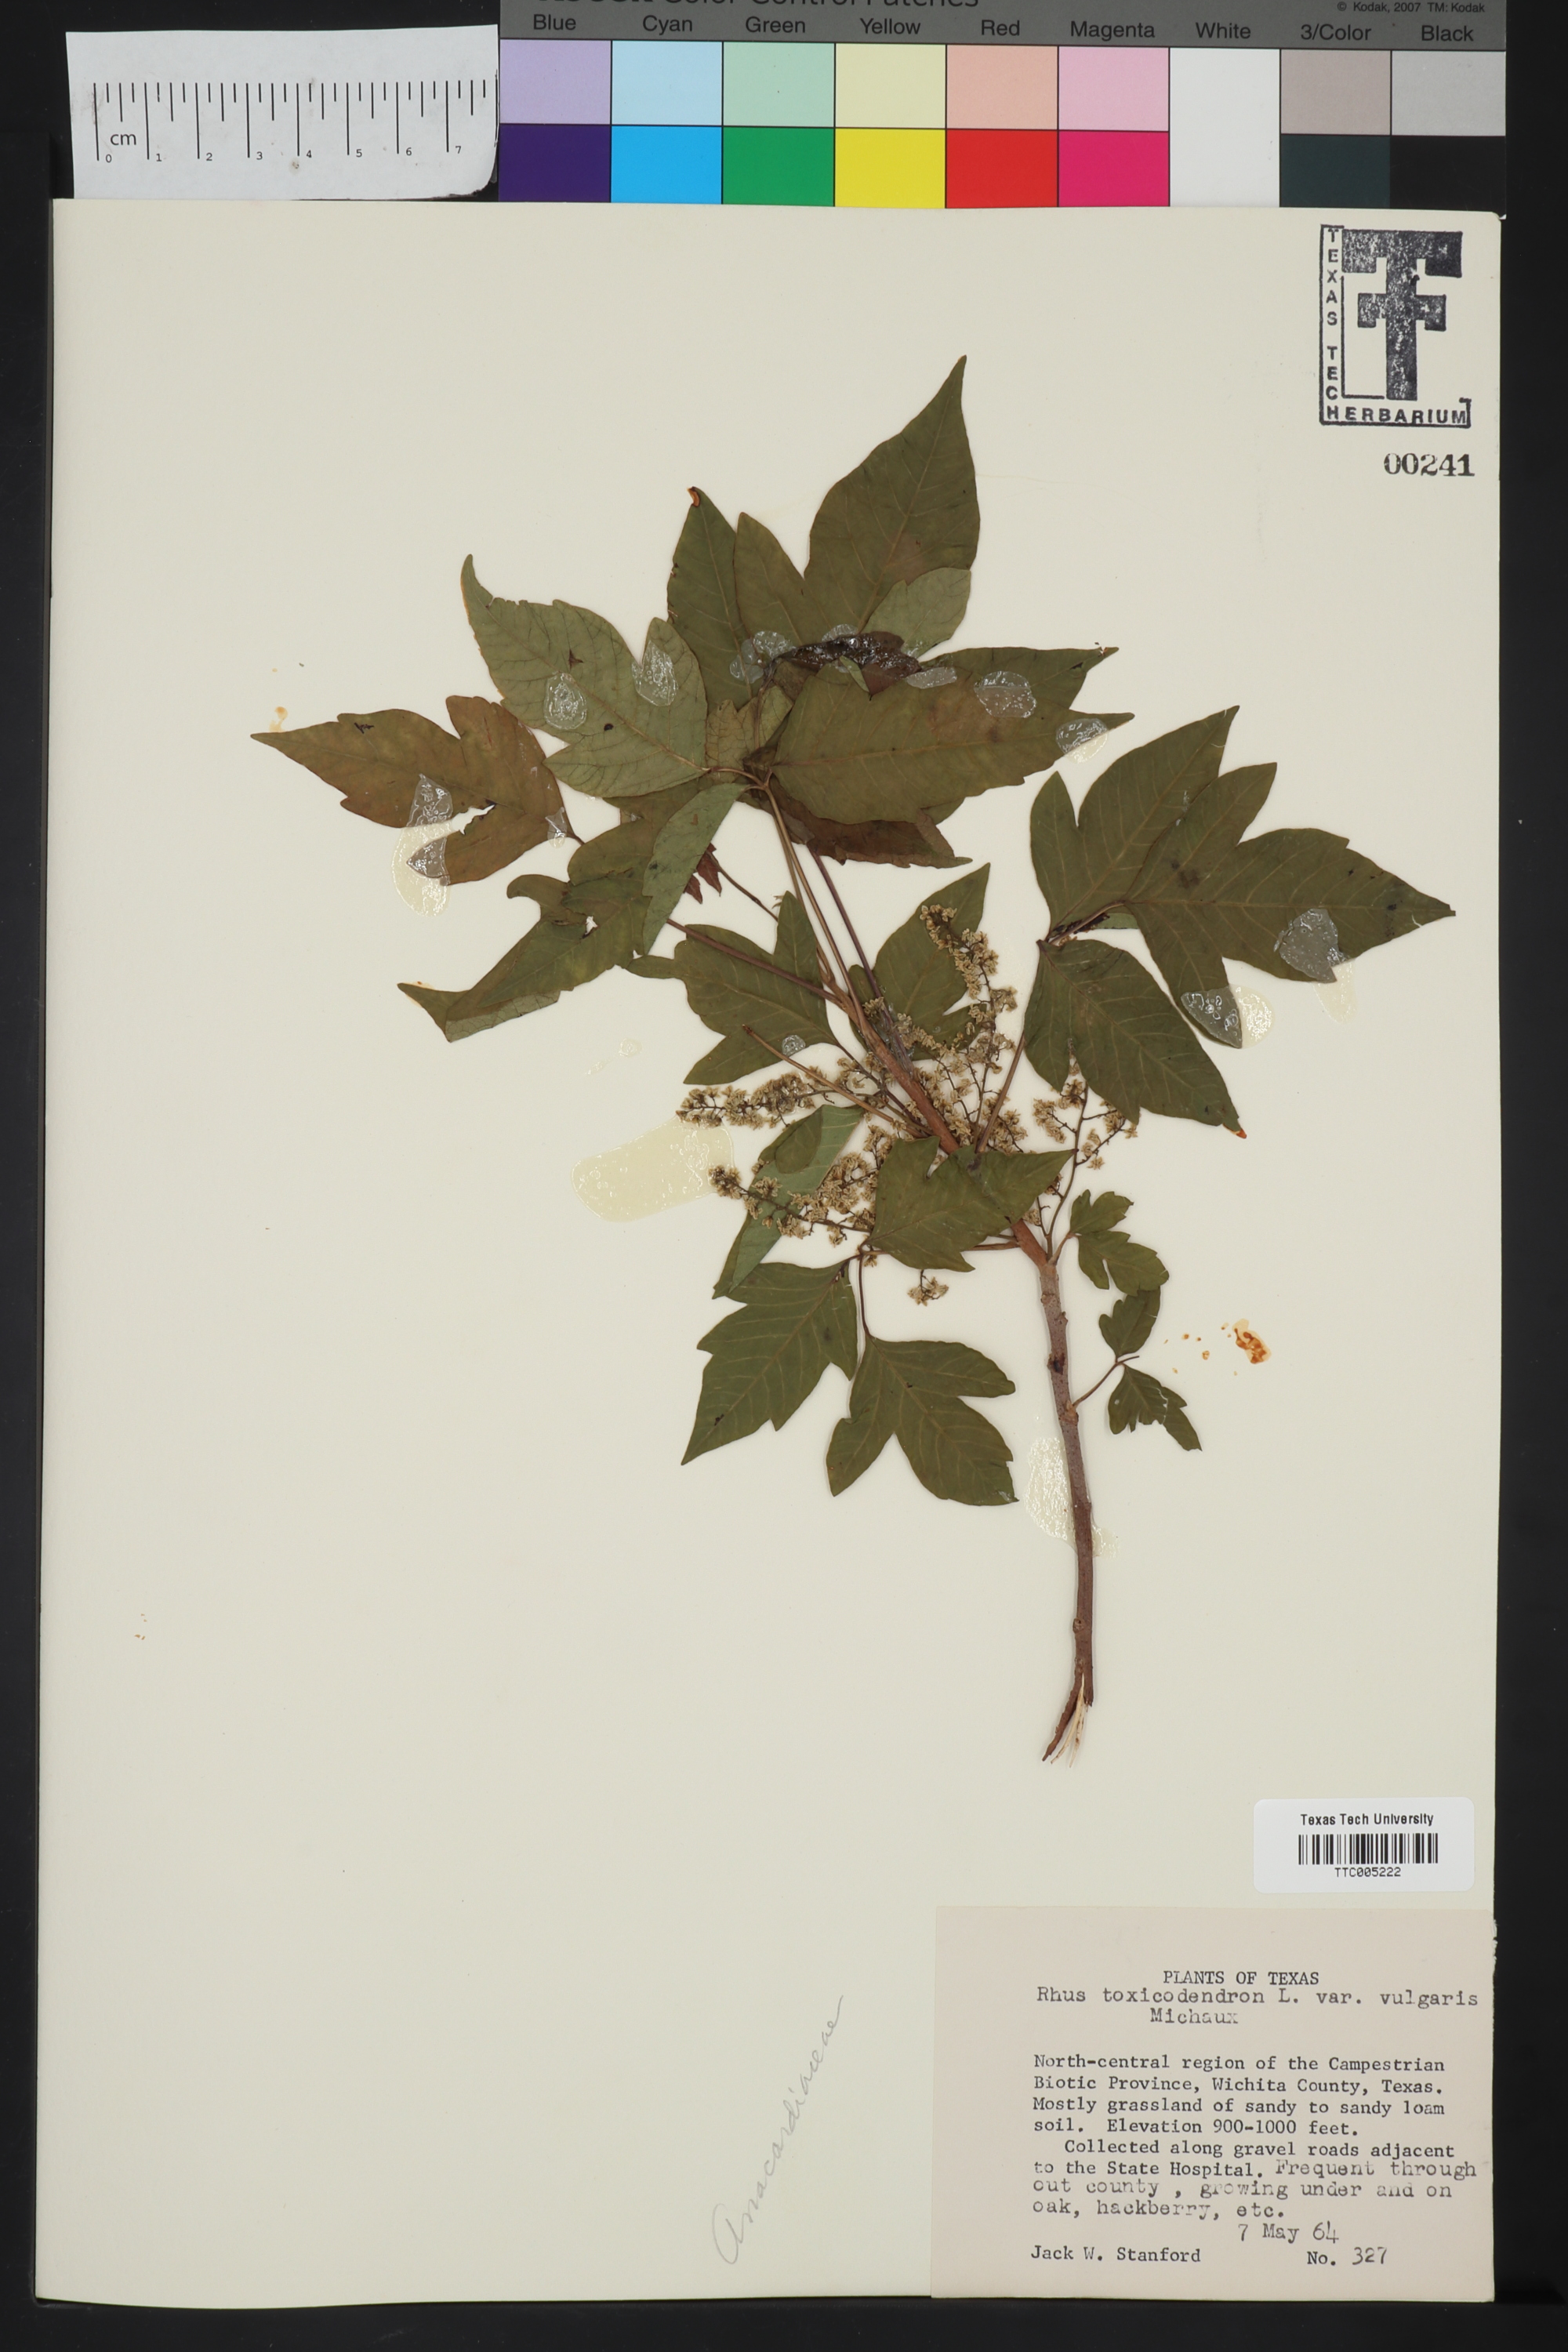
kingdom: Plantae
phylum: Tracheophyta
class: Magnoliopsida
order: Sapindales
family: Anacardiaceae
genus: Toxicodendron
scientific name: Toxicodendron rydbergii
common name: Rydberg's poison-ivy
